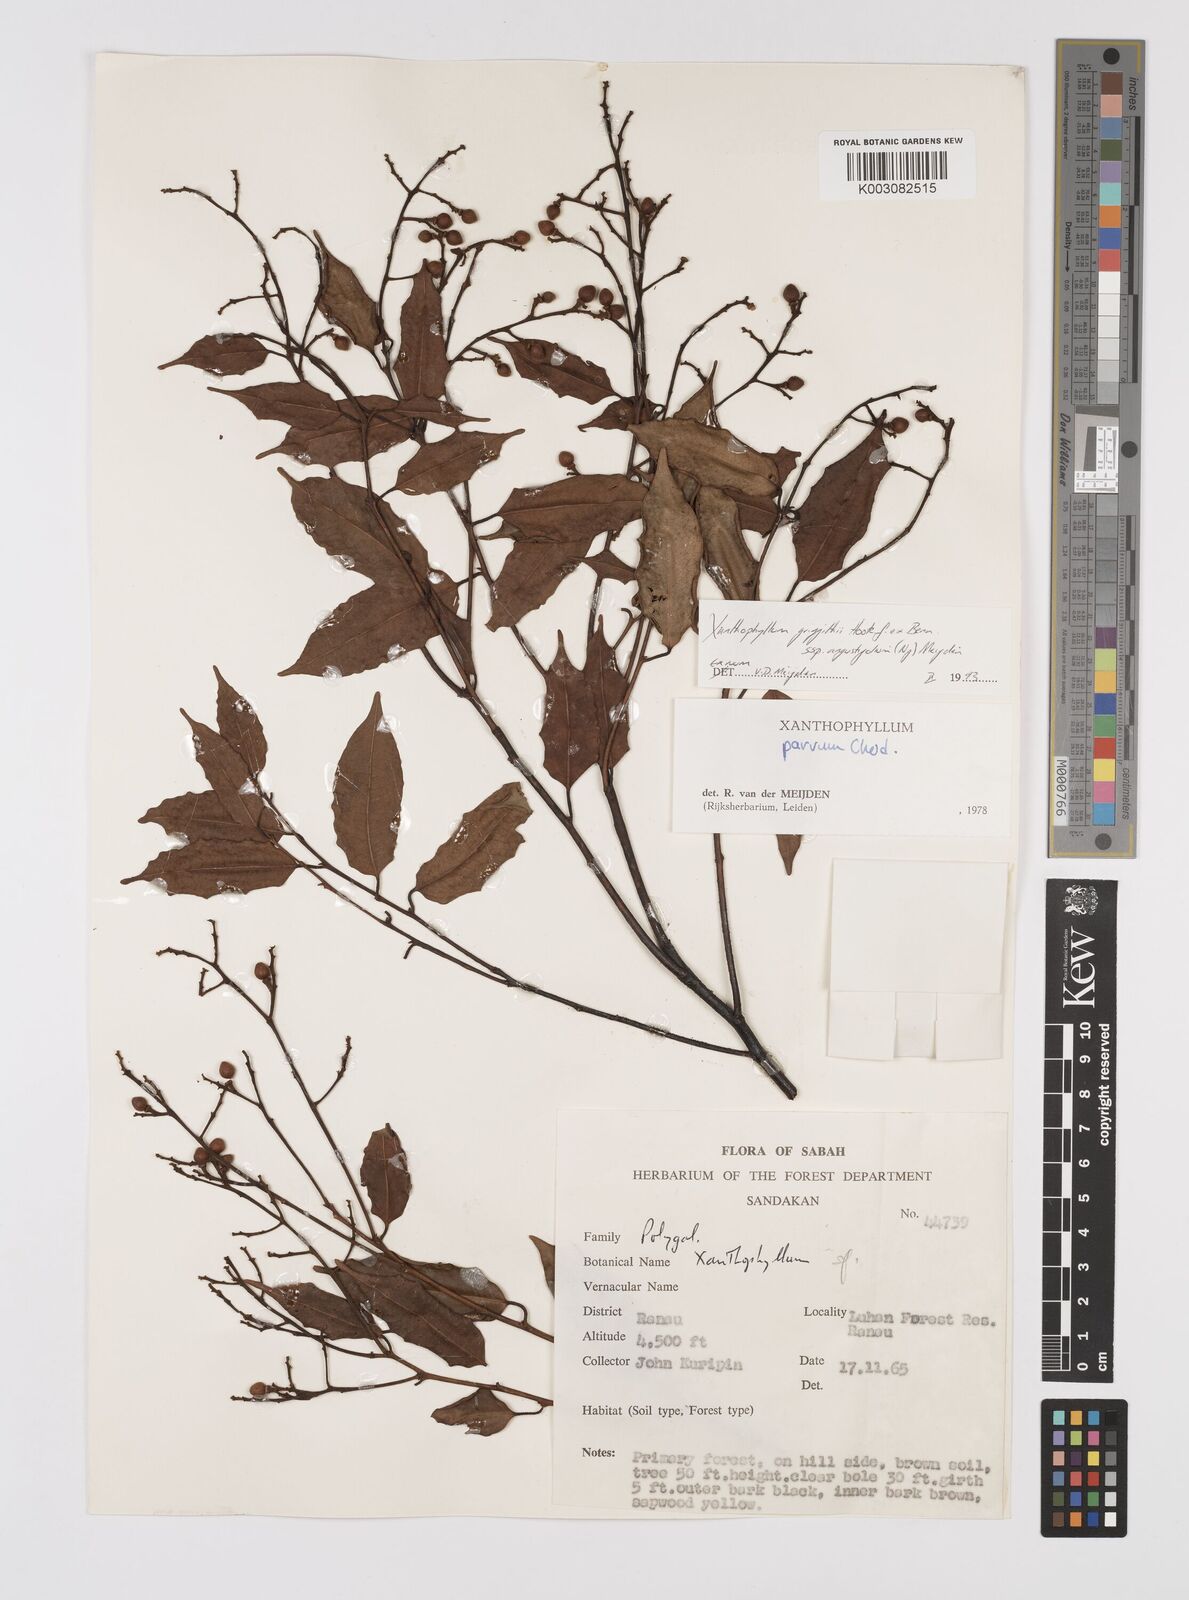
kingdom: Plantae
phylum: Tracheophyta
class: Magnoliopsida
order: Fabales
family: Polygalaceae
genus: Xanthophyllum
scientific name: Xanthophyllum griffithii
